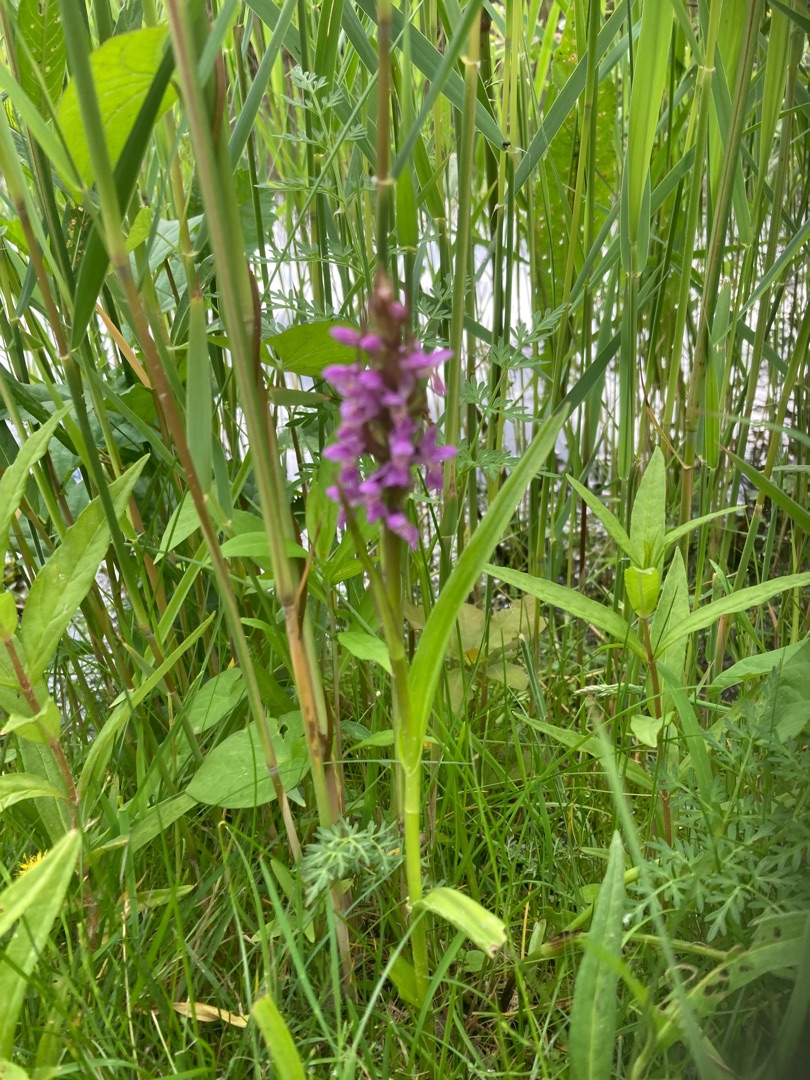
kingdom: Plantae
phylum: Tracheophyta
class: Liliopsida
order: Asparagales
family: Orchidaceae
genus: Dactylorhiza
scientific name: Dactylorhiza incarnata
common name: Kødfarvet gøgeurt
